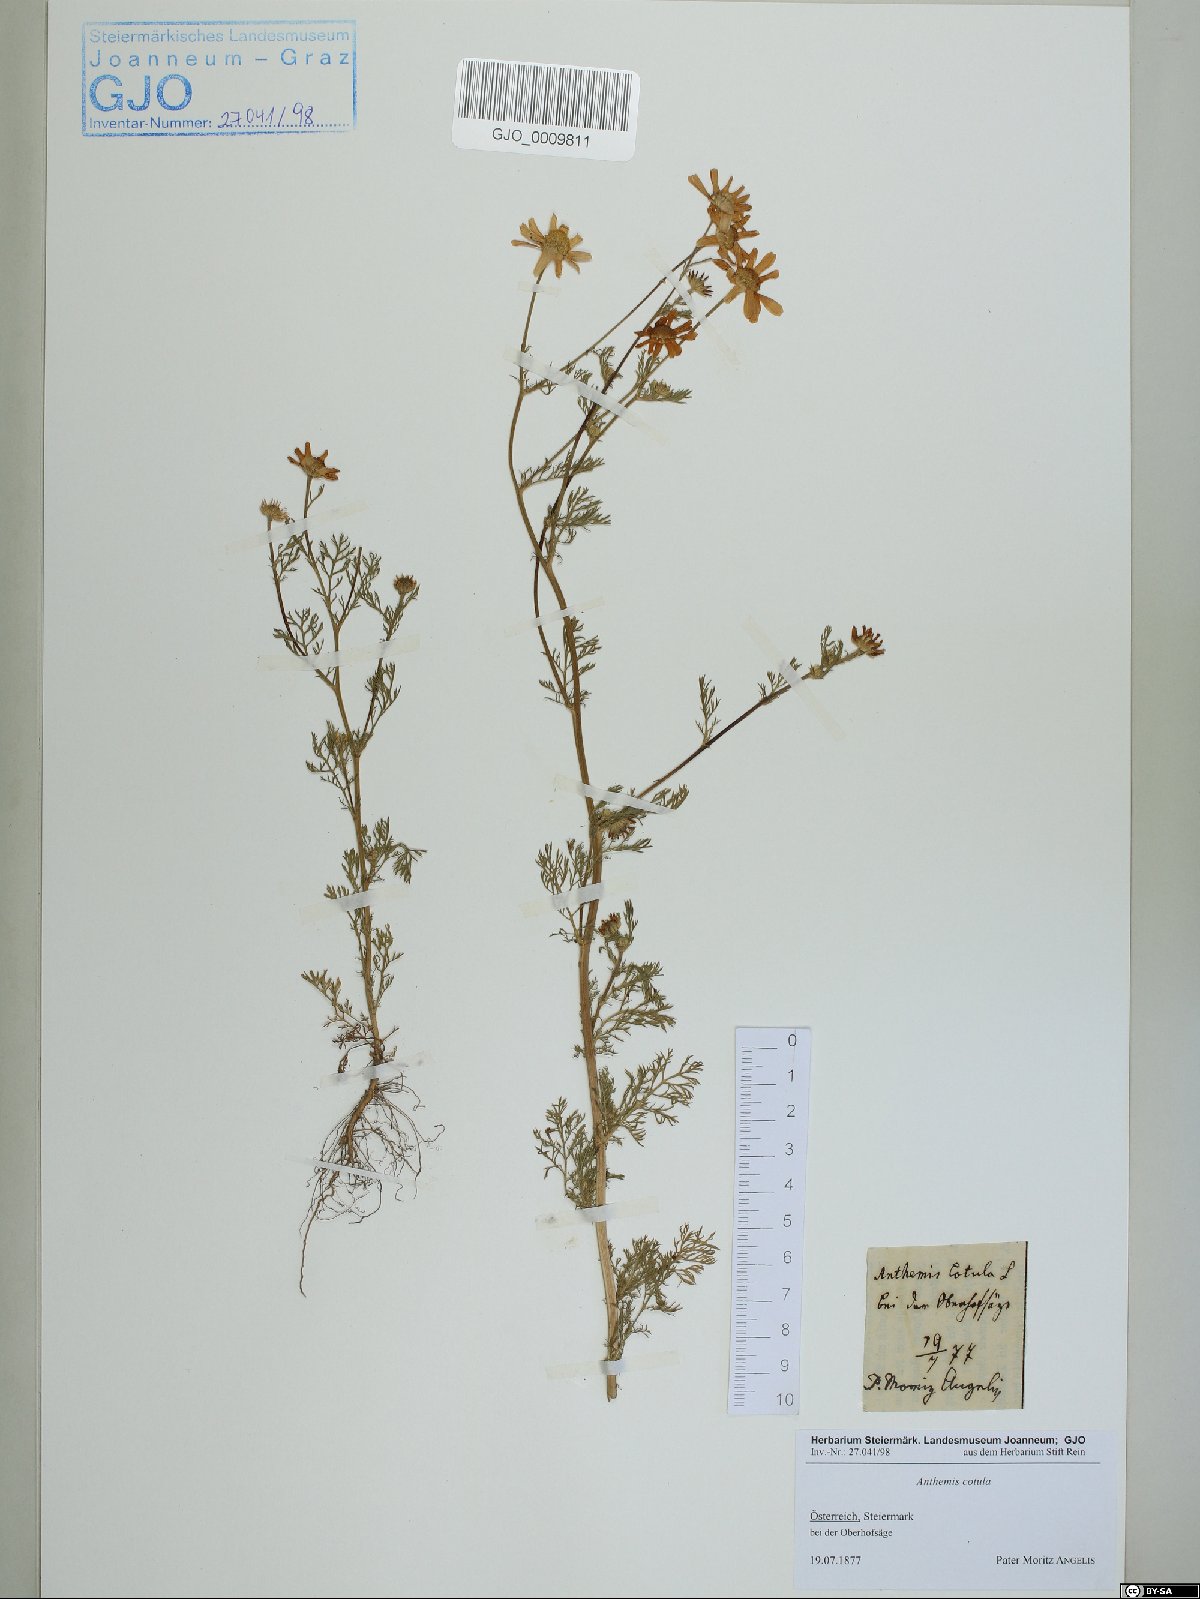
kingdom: Plantae
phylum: Tracheophyta
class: Magnoliopsida
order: Asterales
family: Asteraceae
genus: Anthemis
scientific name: Anthemis cotula
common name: Stinking chamomile
